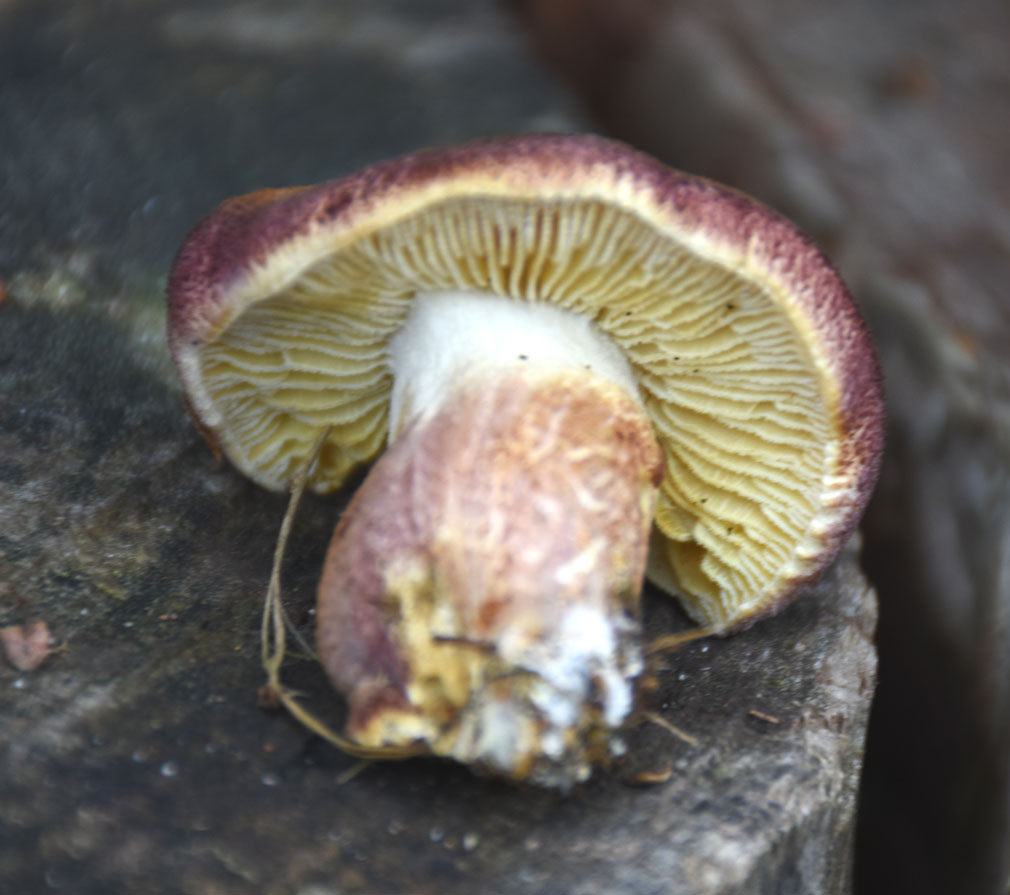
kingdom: Fungi
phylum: Basidiomycota
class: Agaricomycetes
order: Agaricales
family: Tricholomataceae
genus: Tricholomopsis
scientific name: Tricholomopsis rutilans
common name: purpur-væbnerhat
